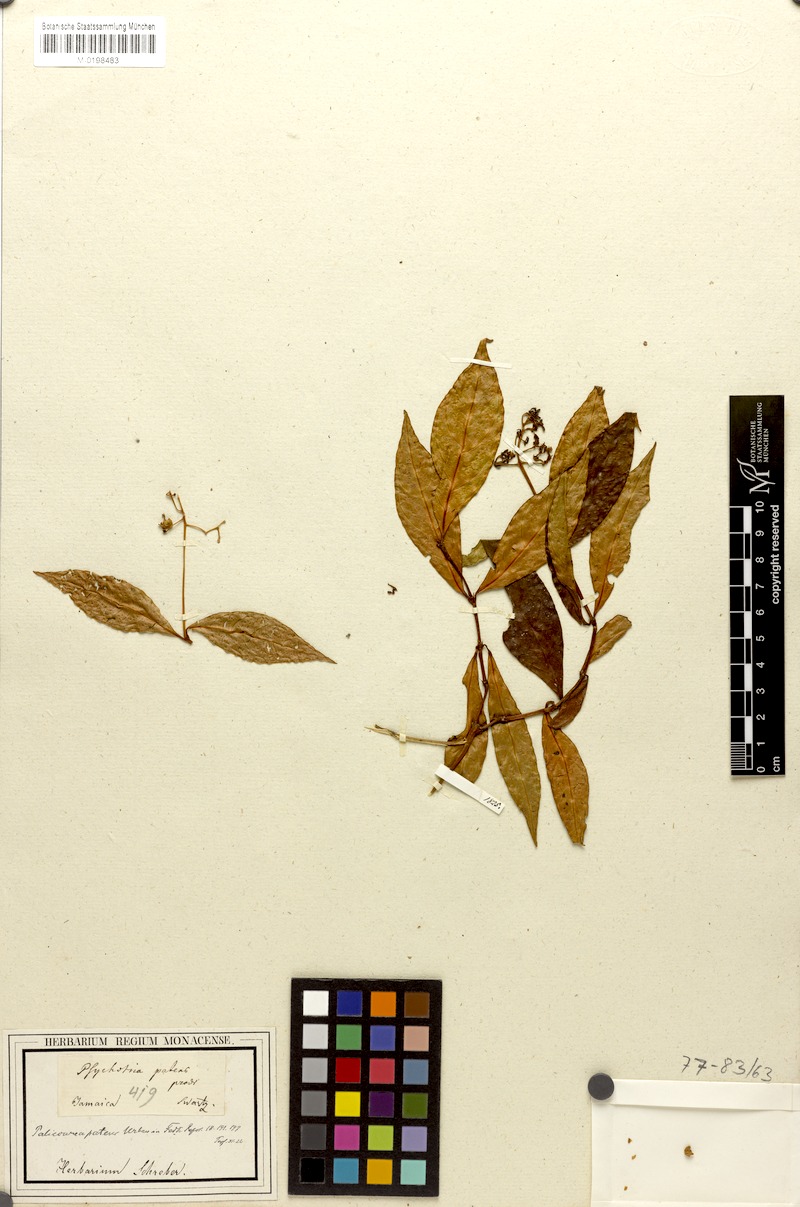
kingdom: Plantae
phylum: Tracheophyta
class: Magnoliopsida
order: Gentianales
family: Rubiaceae
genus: Palicourea
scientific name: Palicourea patens
